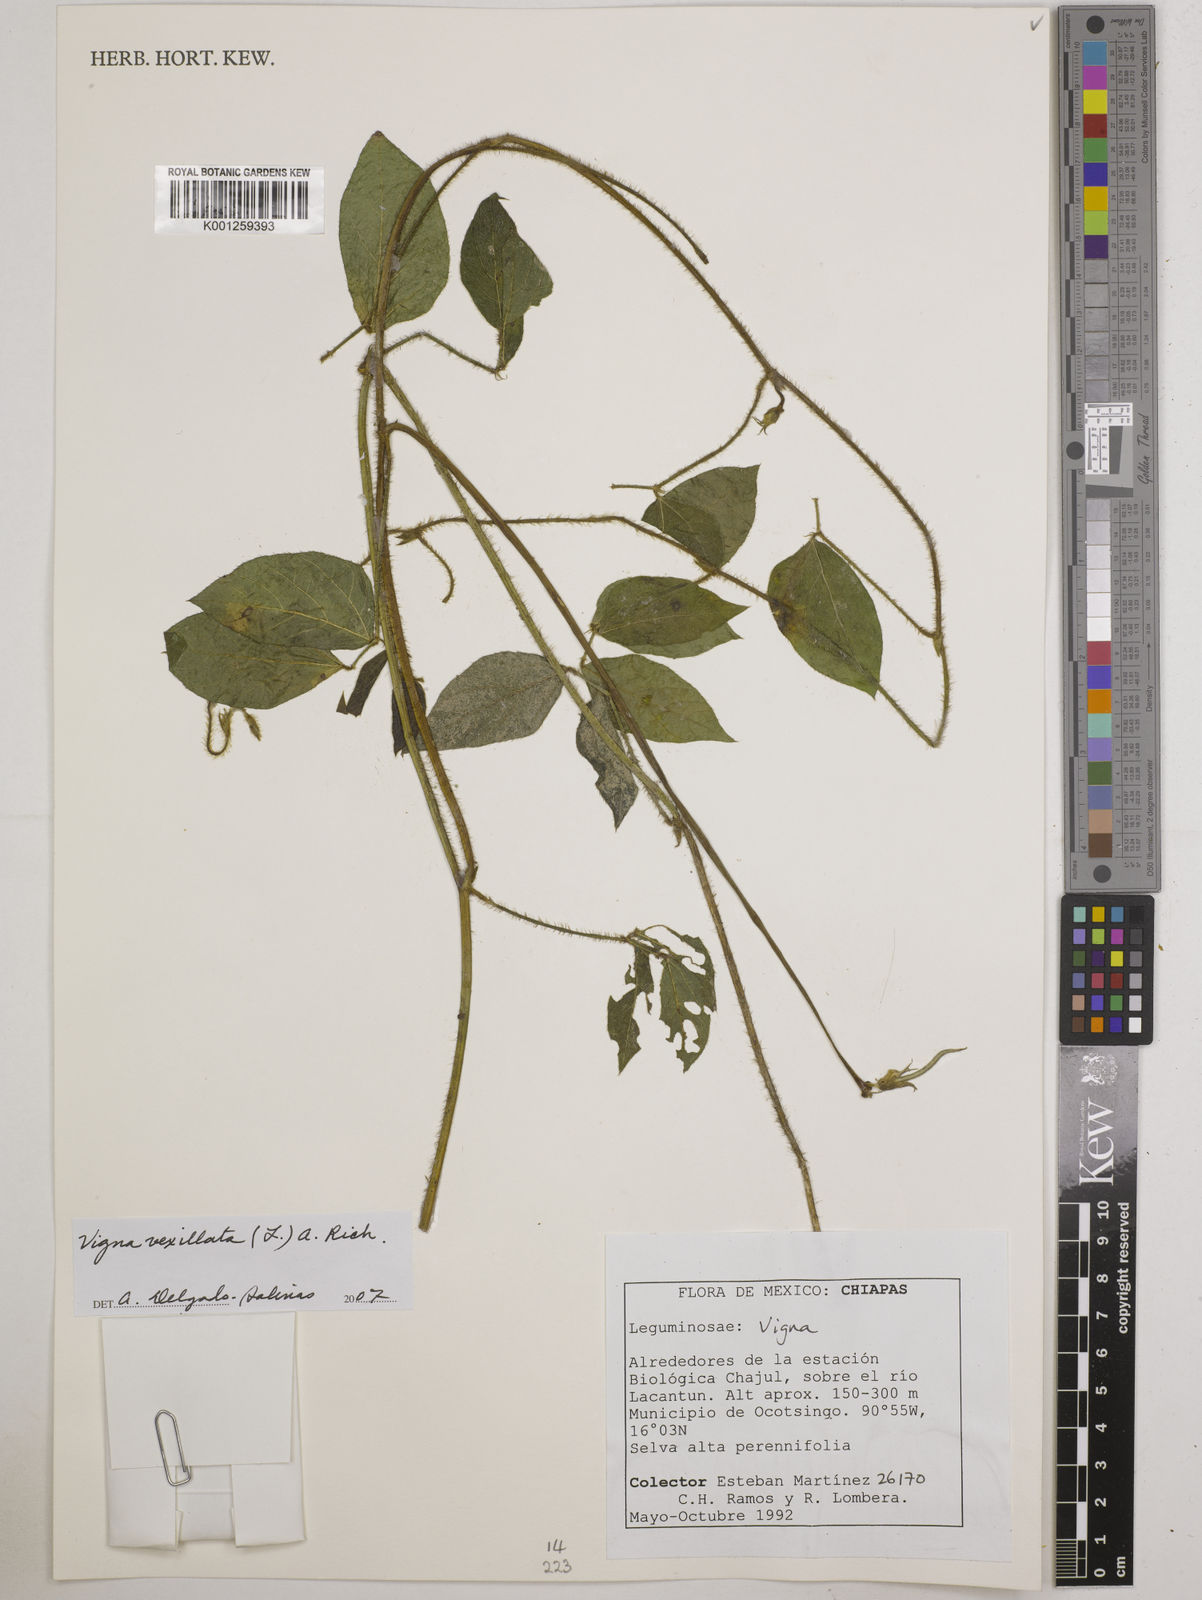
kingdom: Plantae
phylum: Tracheophyta
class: Magnoliopsida
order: Fabales
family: Fabaceae
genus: Vigna
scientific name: Vigna vexillata
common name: Zombi pea
